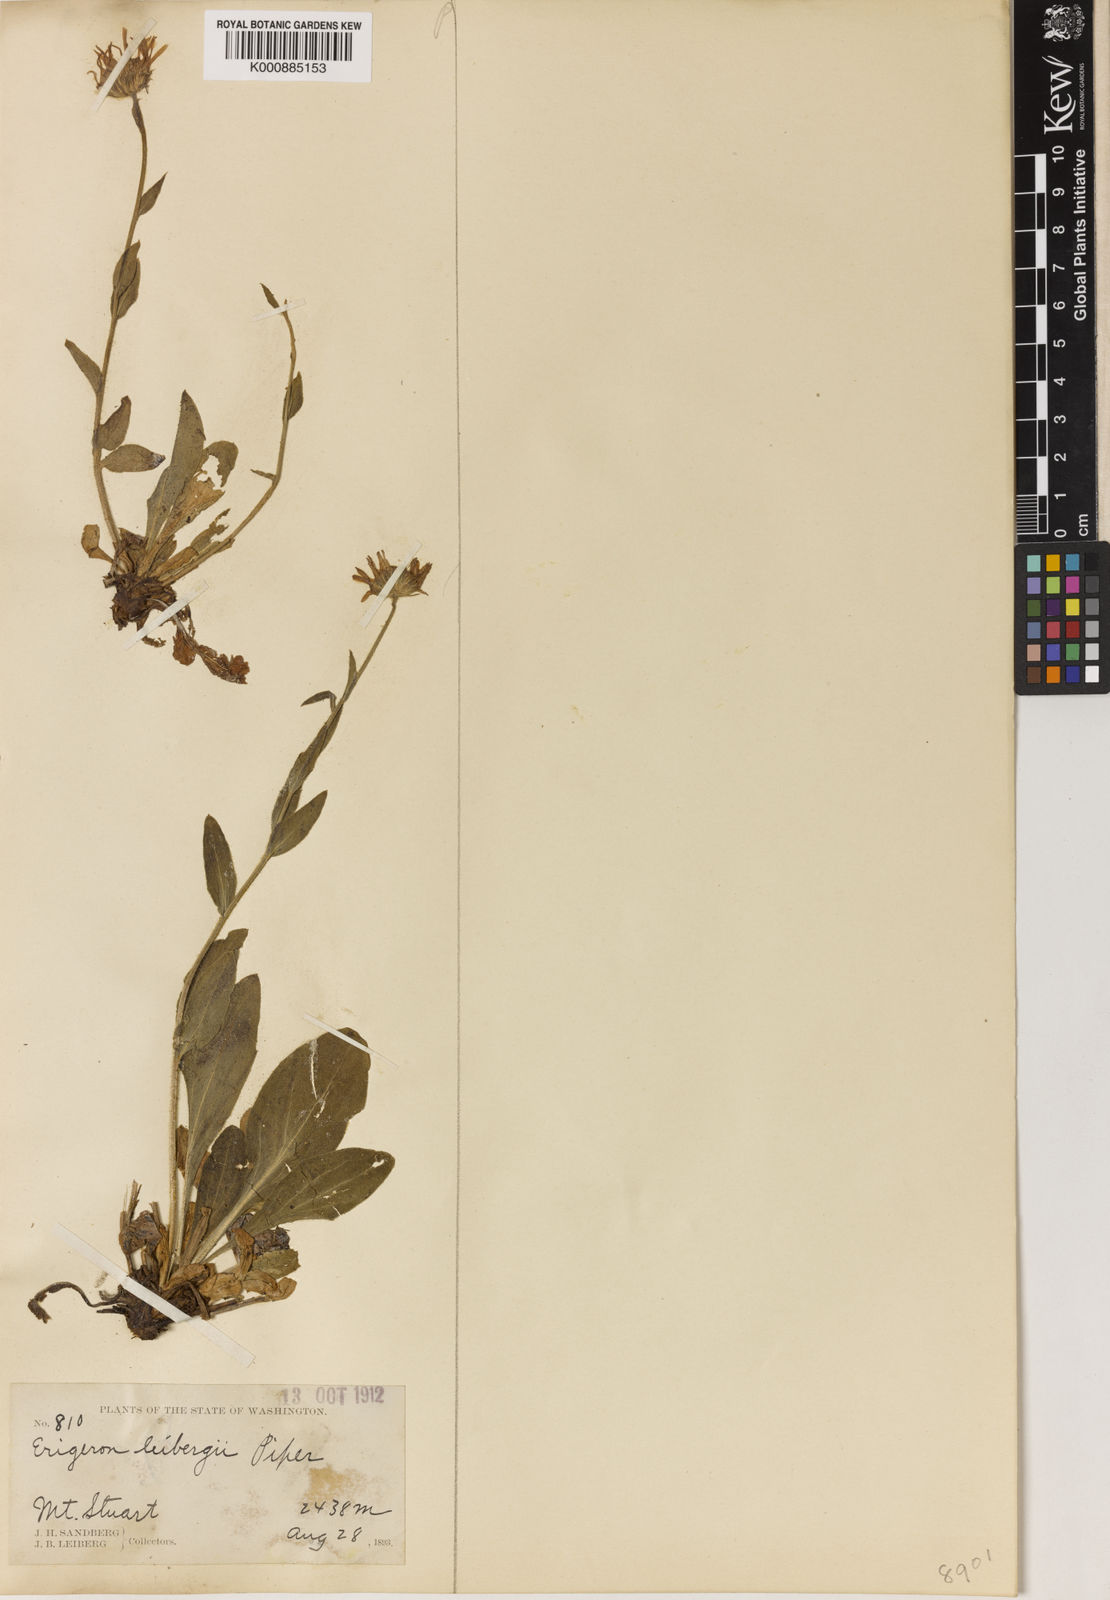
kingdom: Plantae
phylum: Tracheophyta
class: Magnoliopsida
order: Asterales
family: Asteraceae
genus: Erigeron
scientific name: Erigeron leibergii
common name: Leiberg's daisy
